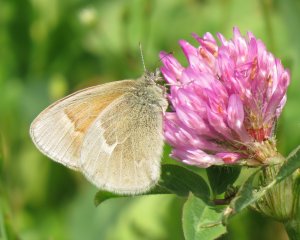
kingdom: Animalia
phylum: Arthropoda
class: Insecta
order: Lepidoptera
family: Nymphalidae
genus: Coenonympha
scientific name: Coenonympha tullia
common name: Large Heath
